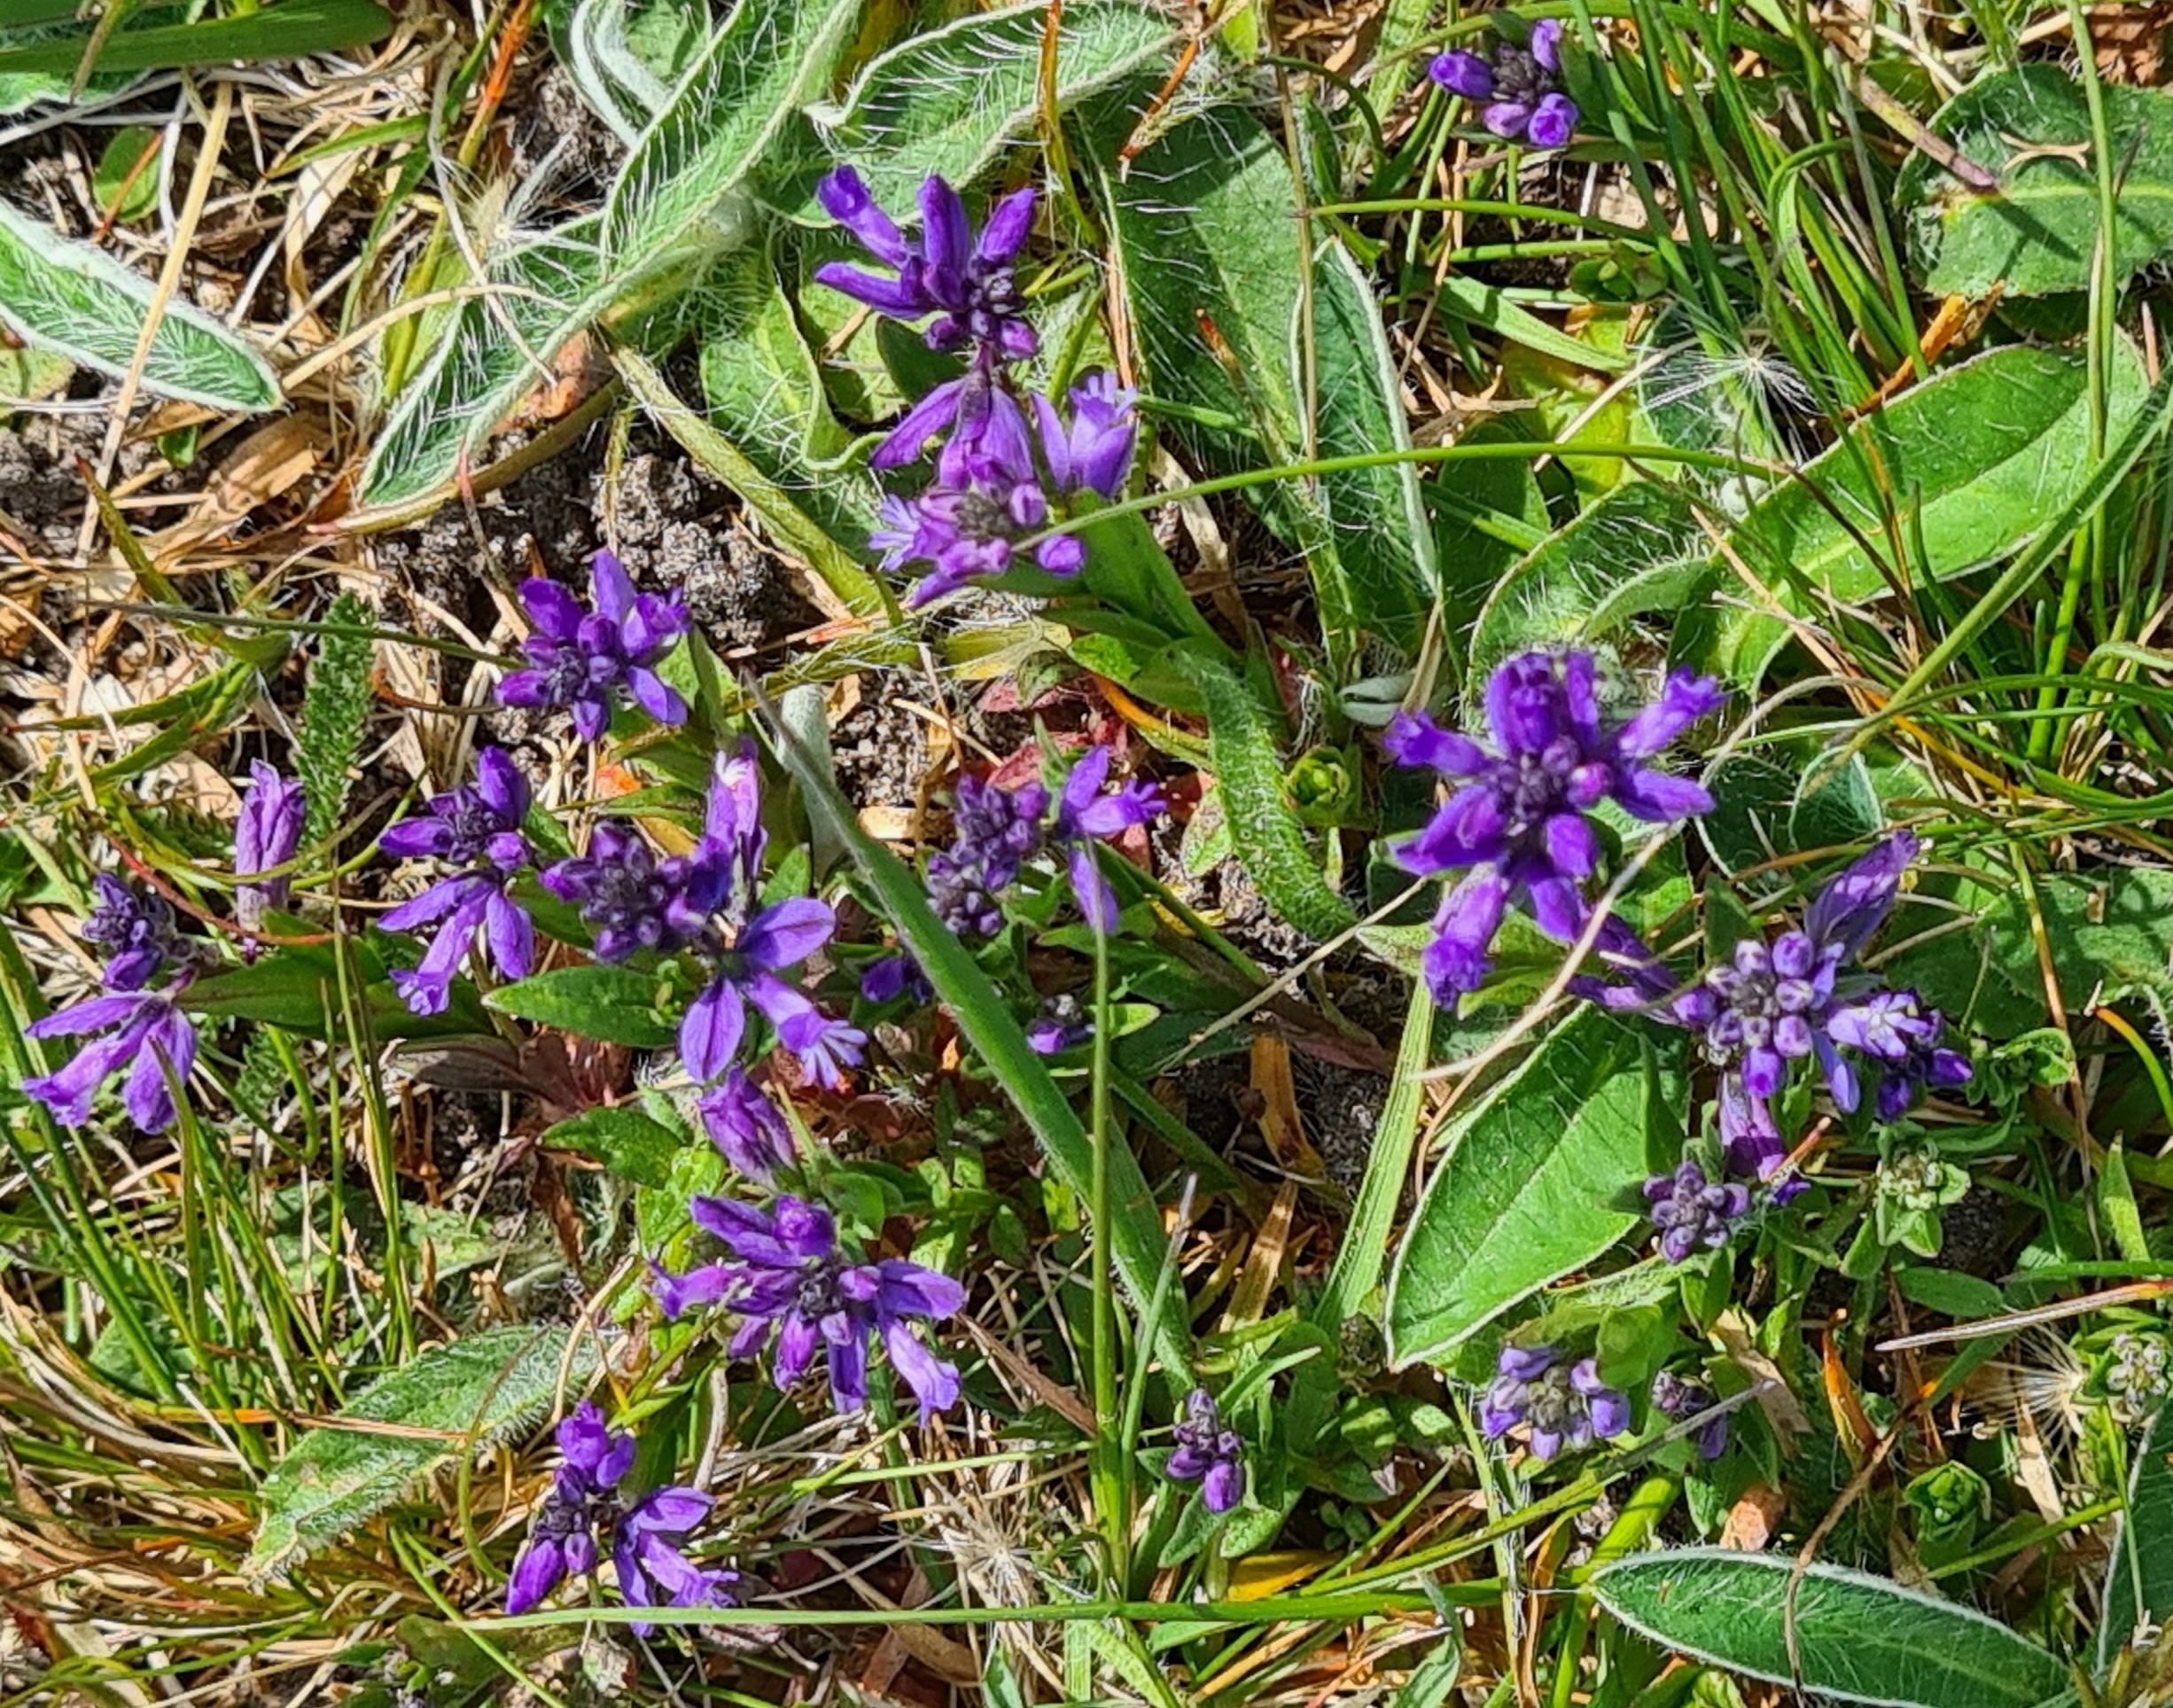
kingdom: Plantae
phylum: Tracheophyta
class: Magnoliopsida
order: Fabales
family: Polygalaceae
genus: Polygala
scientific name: Polygala vulgaris
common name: Almindelig mælkeurt
